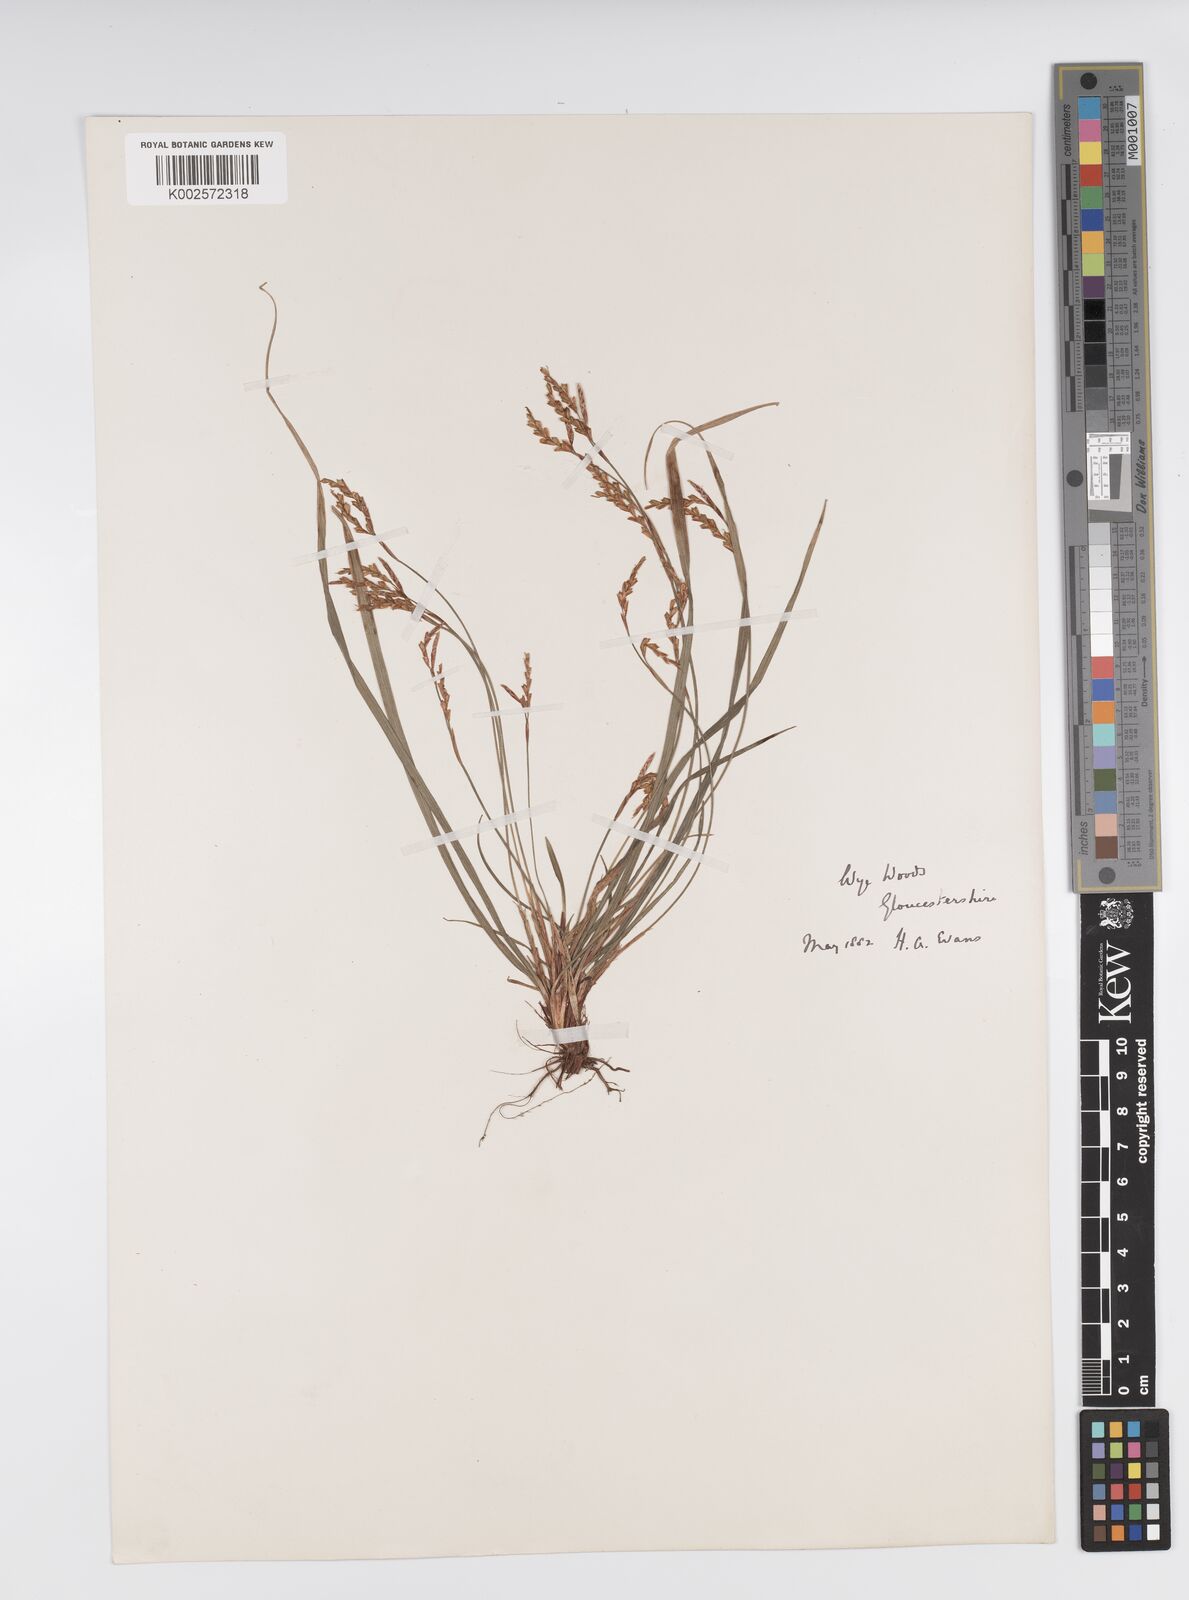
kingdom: Plantae
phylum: Tracheophyta
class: Liliopsida
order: Poales
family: Cyperaceae
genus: Carex
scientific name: Carex digitata
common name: Fingered sedge
